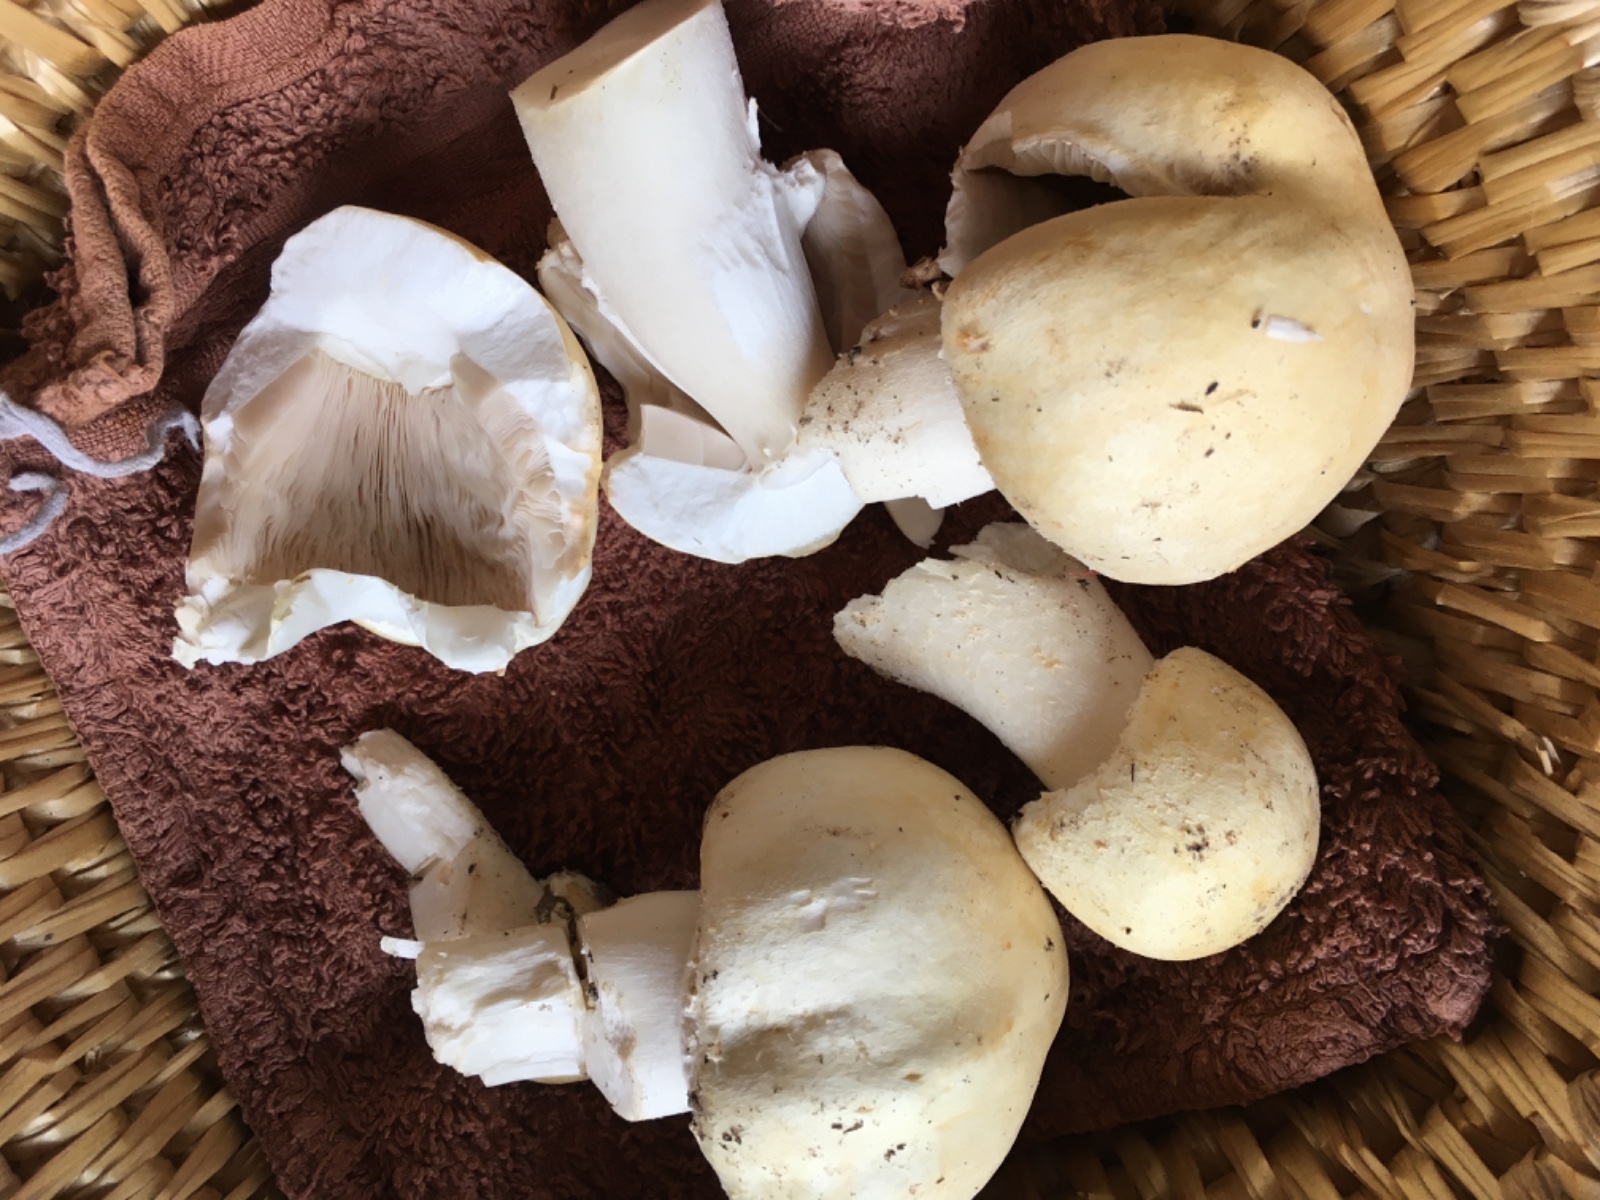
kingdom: Fungi
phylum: Basidiomycota
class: Agaricomycetes
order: Agaricales
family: Agaricaceae
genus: Agaricus
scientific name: Agaricus
